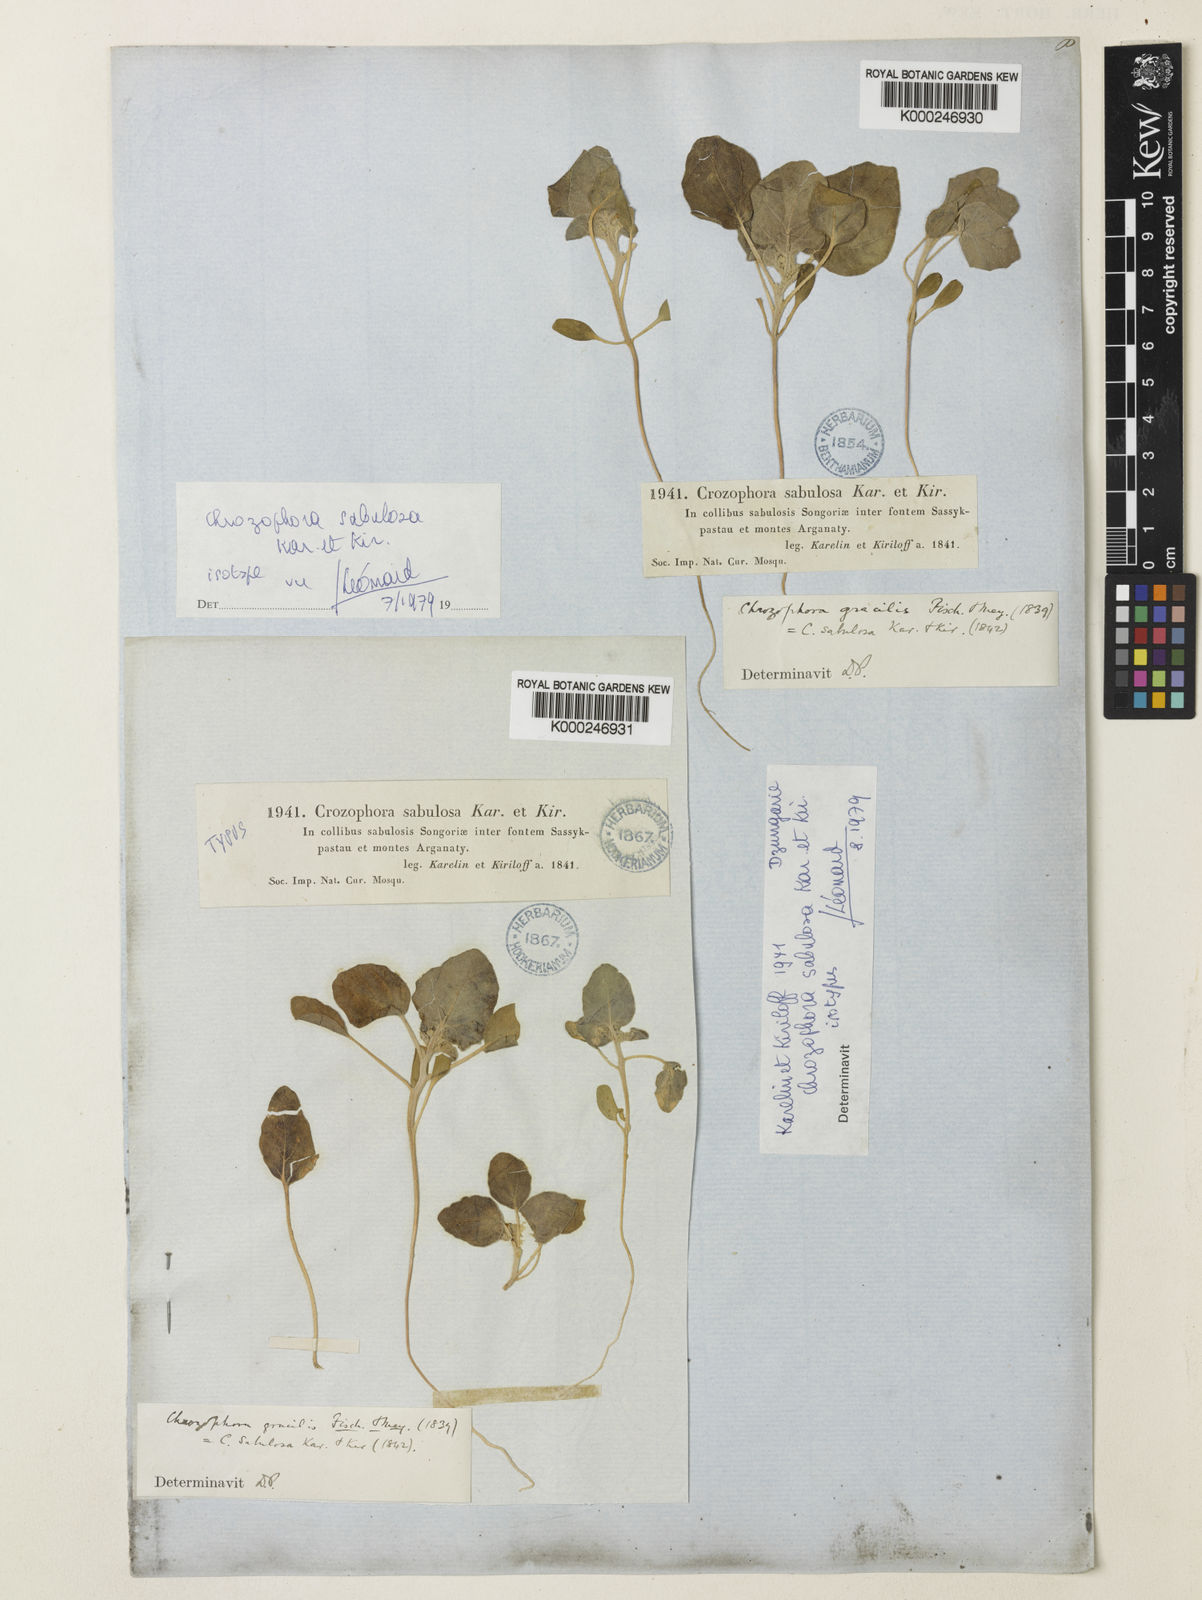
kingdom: Plantae
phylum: Tracheophyta
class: Magnoliopsida
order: Malpighiales
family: Euphorbiaceae
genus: Chrozophora
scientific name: Chrozophora sabulosa
